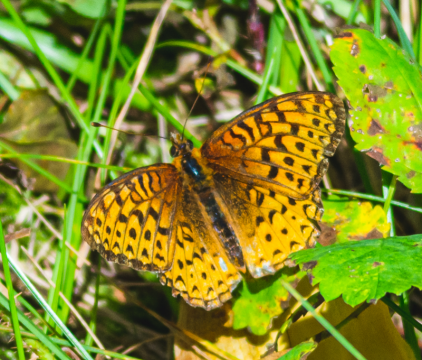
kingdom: Animalia
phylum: Arthropoda
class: Insecta
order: Lepidoptera
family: Nymphalidae
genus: Speyeria
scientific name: Speyeria atlantis
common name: Atlantis Fritillary
